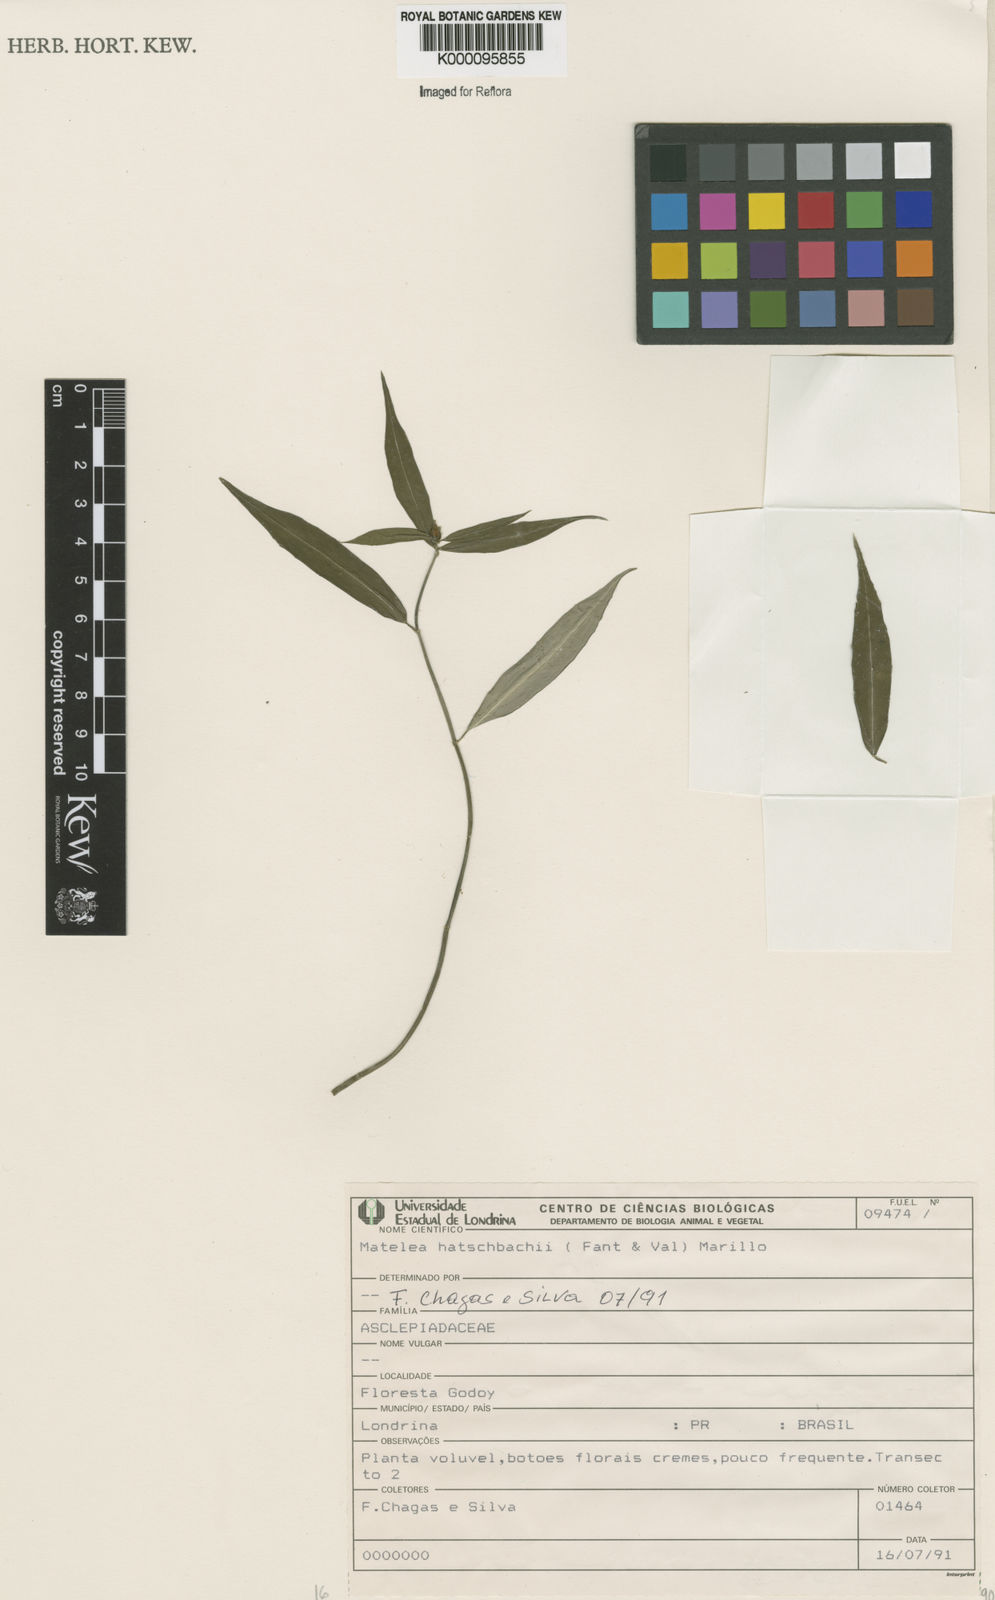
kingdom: Plantae
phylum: Tracheophyta
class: Magnoliopsida
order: Gentianales
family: Apocynaceae
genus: Matelea
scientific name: Matelea hatschbachii
